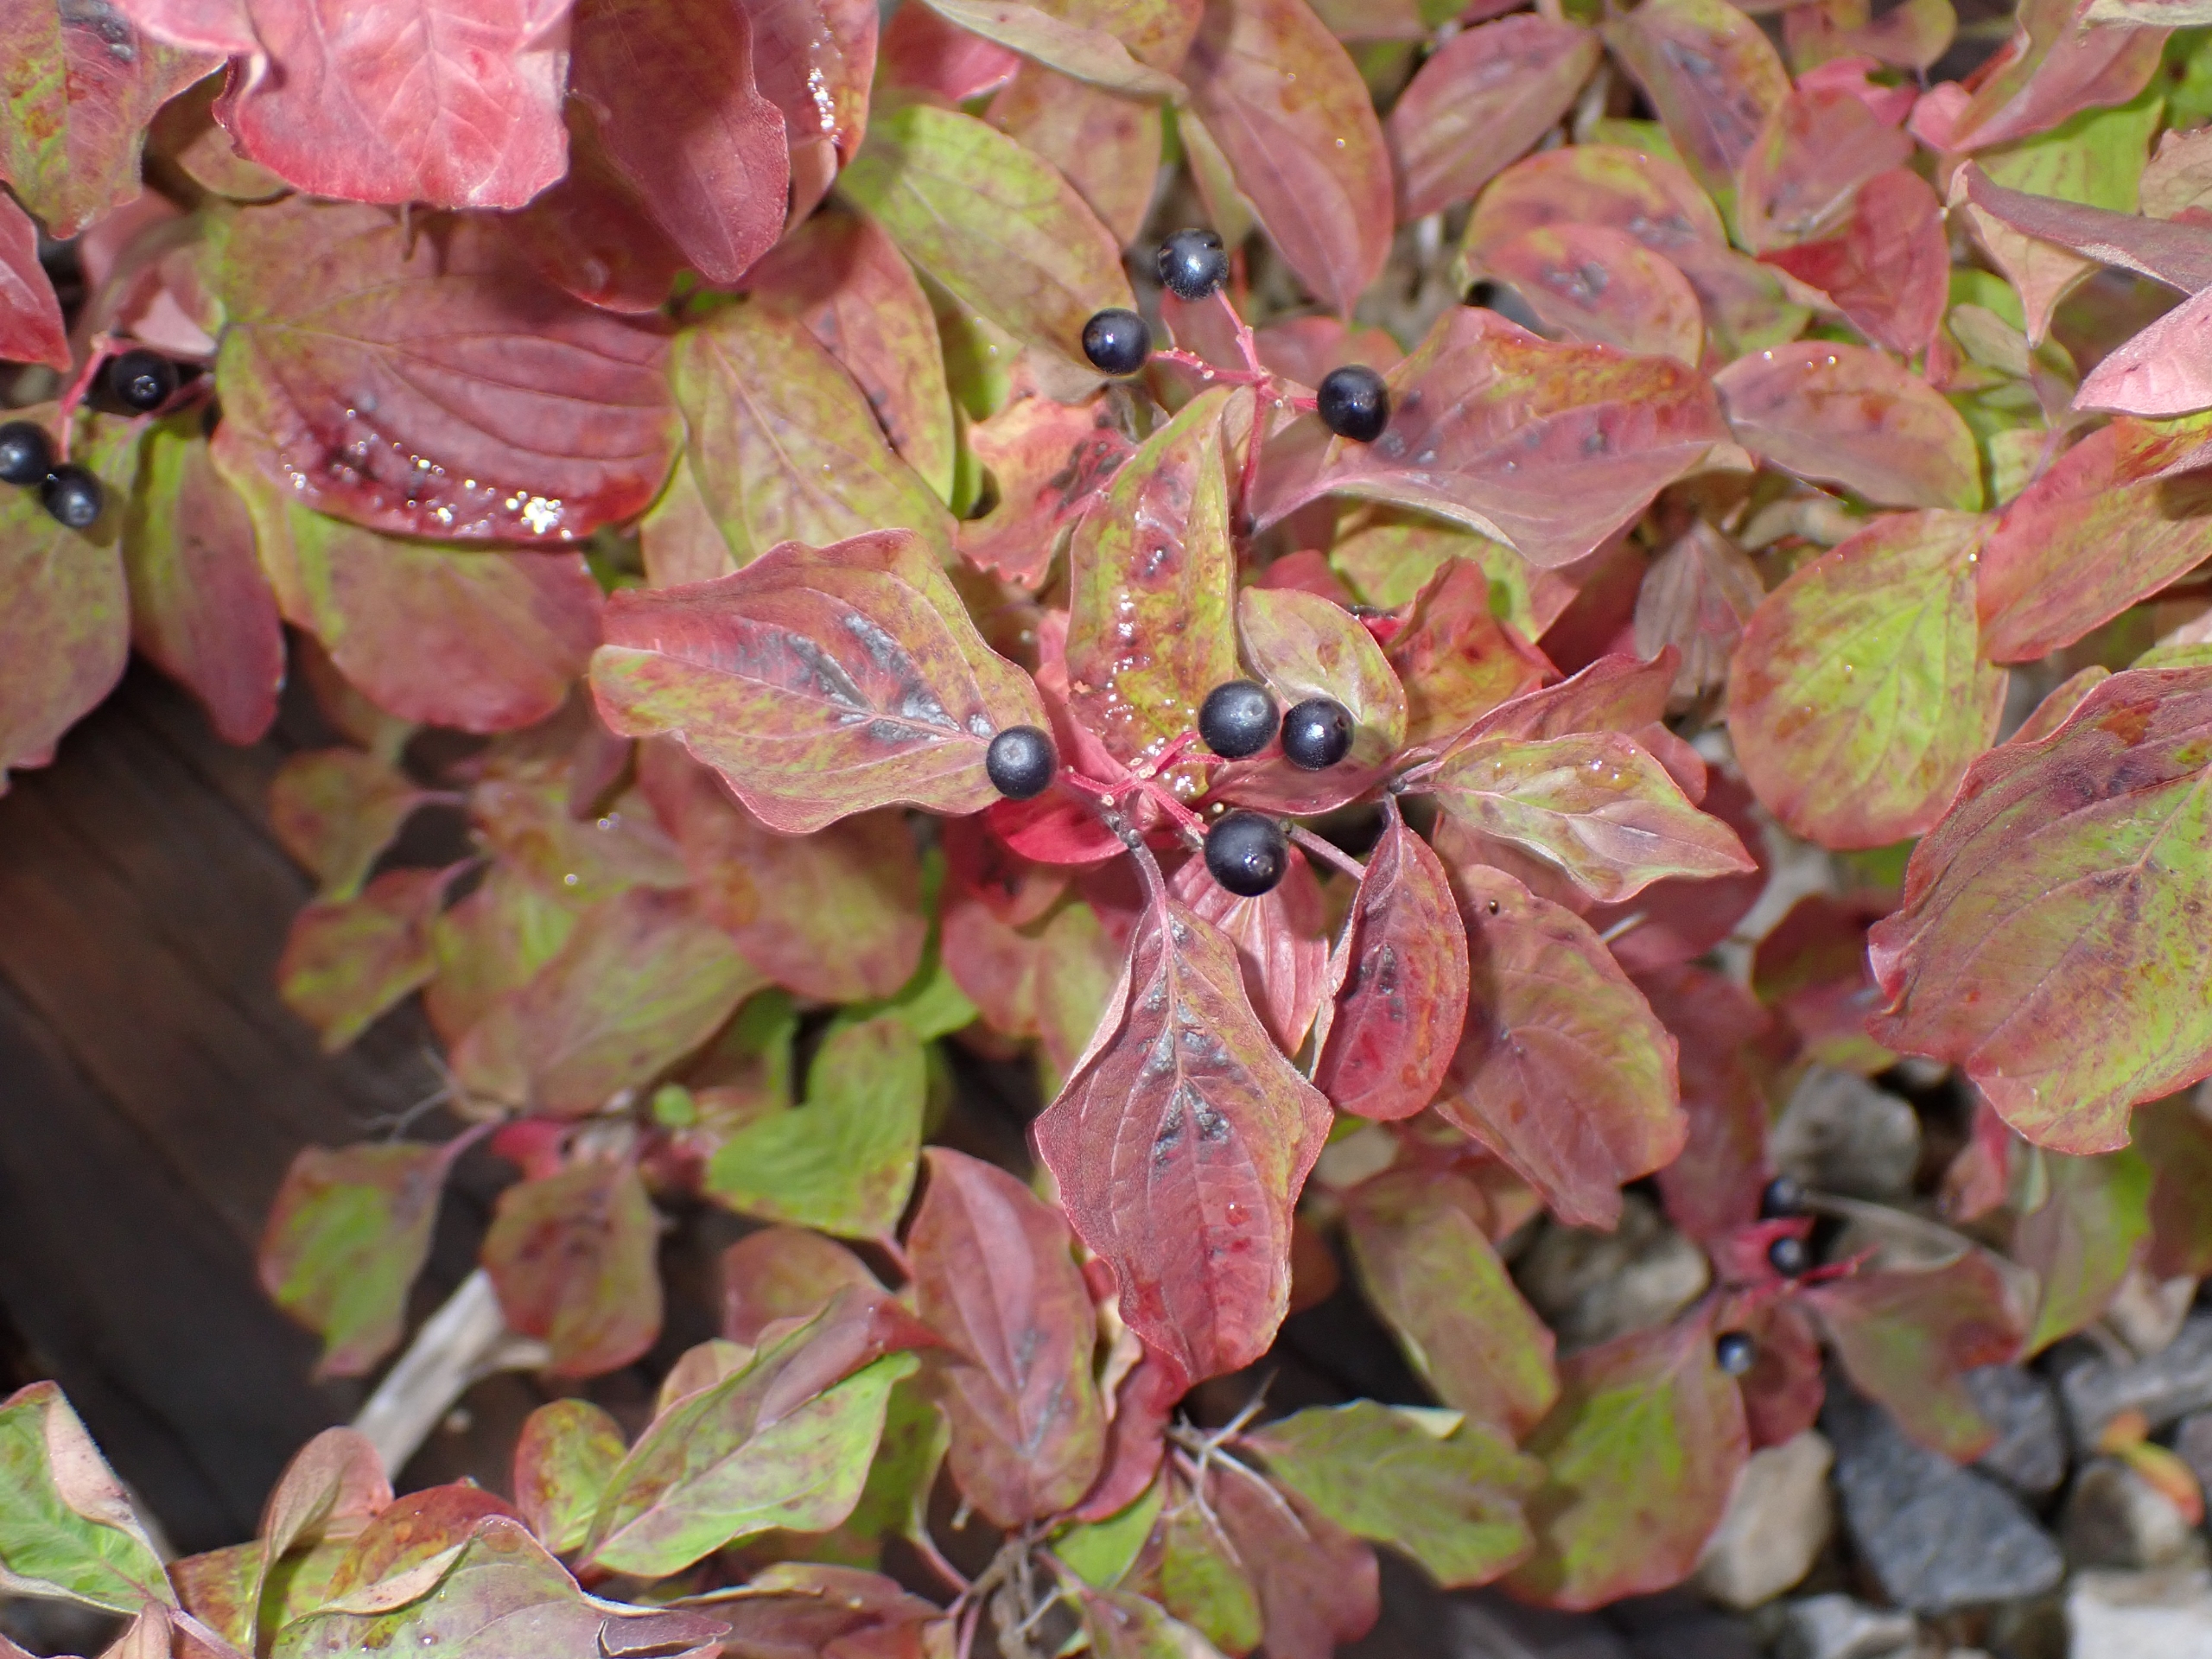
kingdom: Plantae
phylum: Tracheophyta
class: Magnoliopsida
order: Cornales
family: Cornaceae
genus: Cornus
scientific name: Cornus sanguinea
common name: Rød kornel
